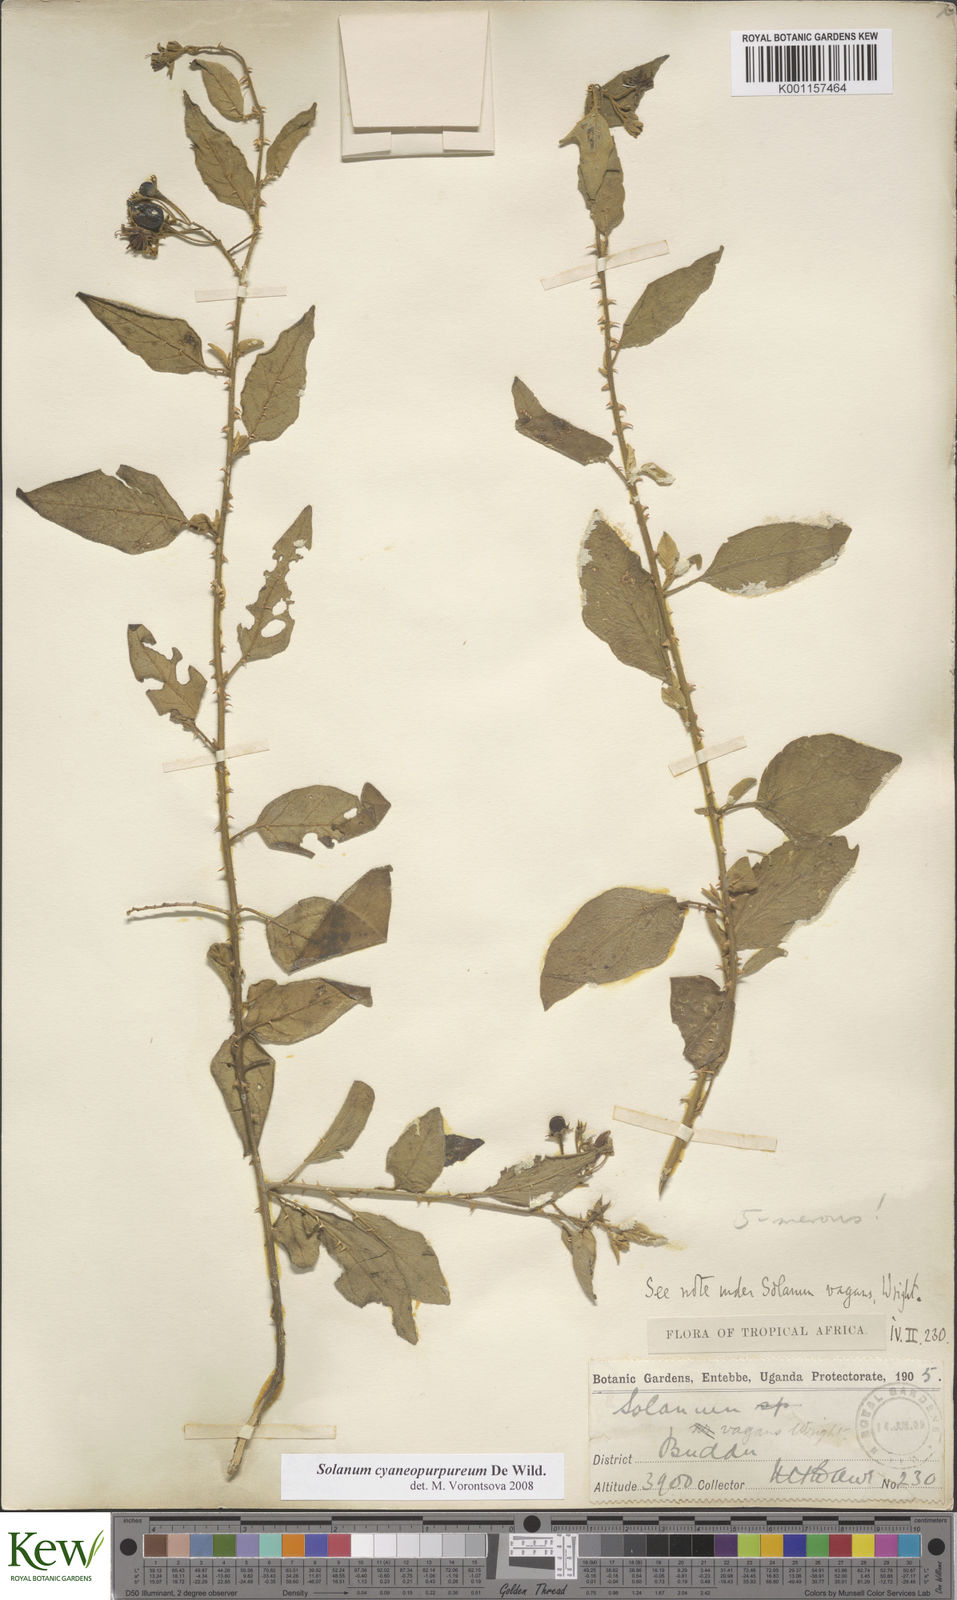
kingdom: Plantae
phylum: Tracheophyta
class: Magnoliopsida
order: Solanales
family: Solanaceae
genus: Solanum
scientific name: Solanum cyaneopurpureum
